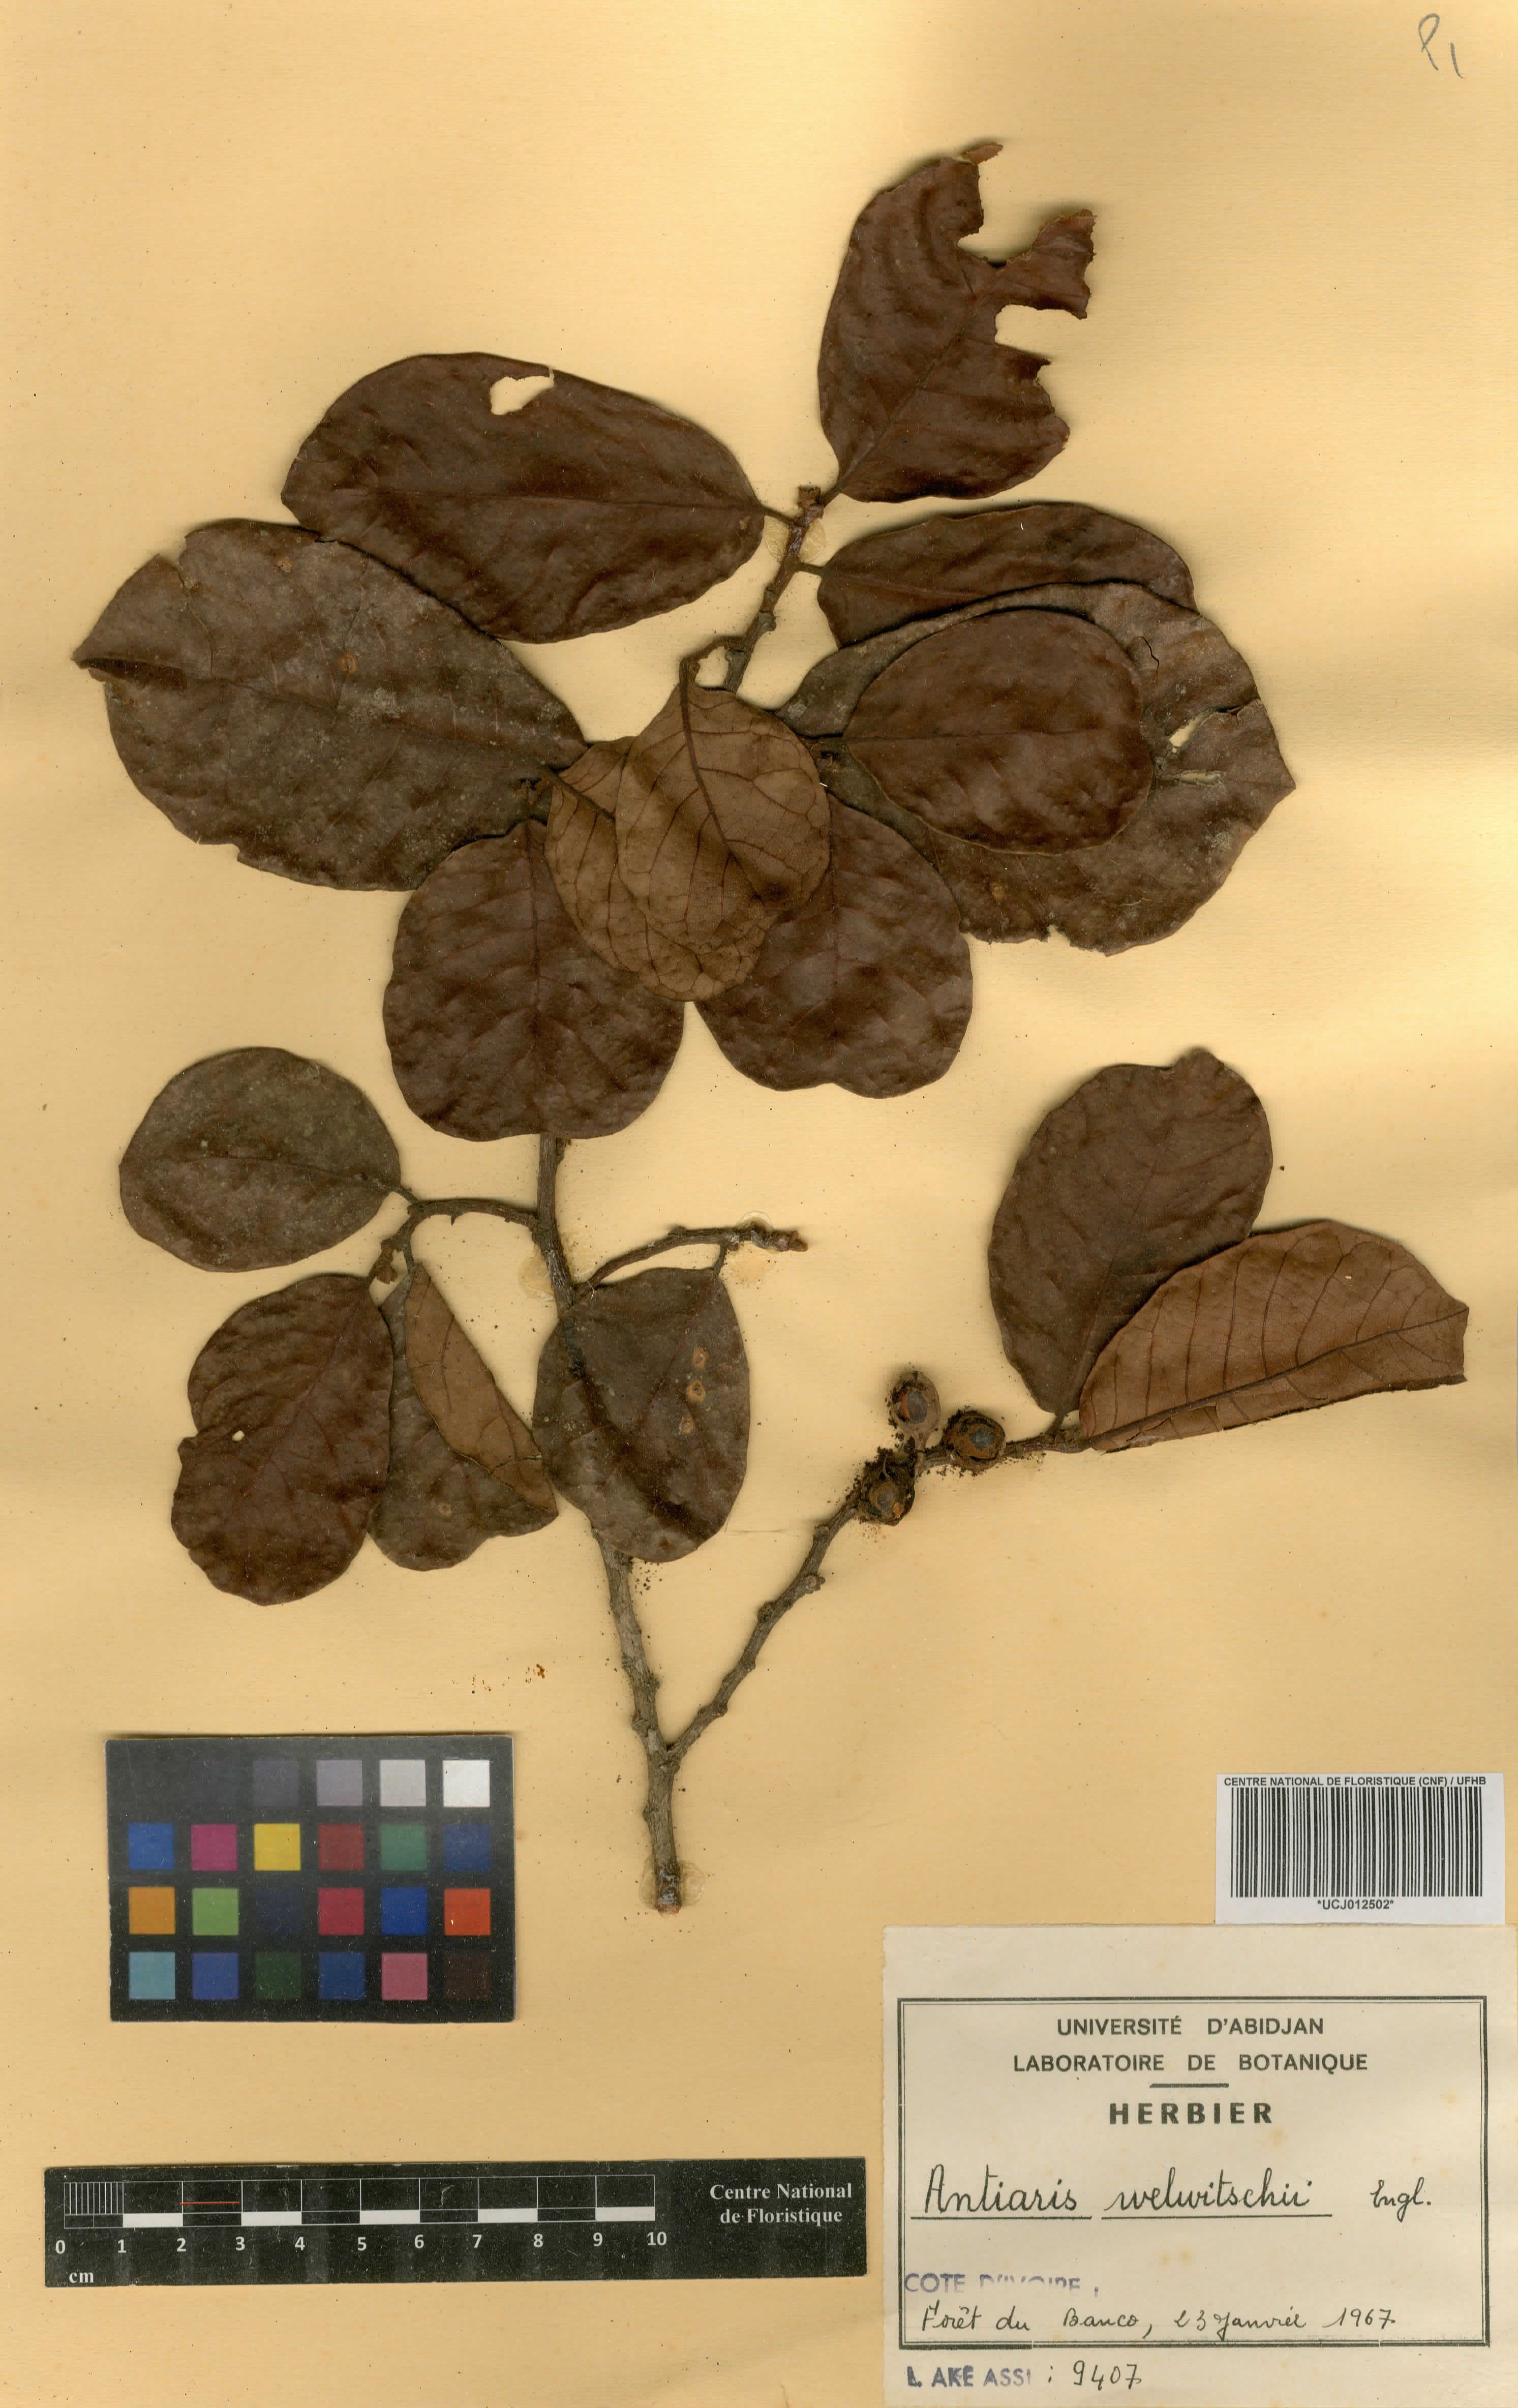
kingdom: Plantae
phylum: Tracheophyta
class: Magnoliopsida
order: Rosales
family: Moraceae
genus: Antiaris
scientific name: Antiaris toxicaria
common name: Sackingtree
